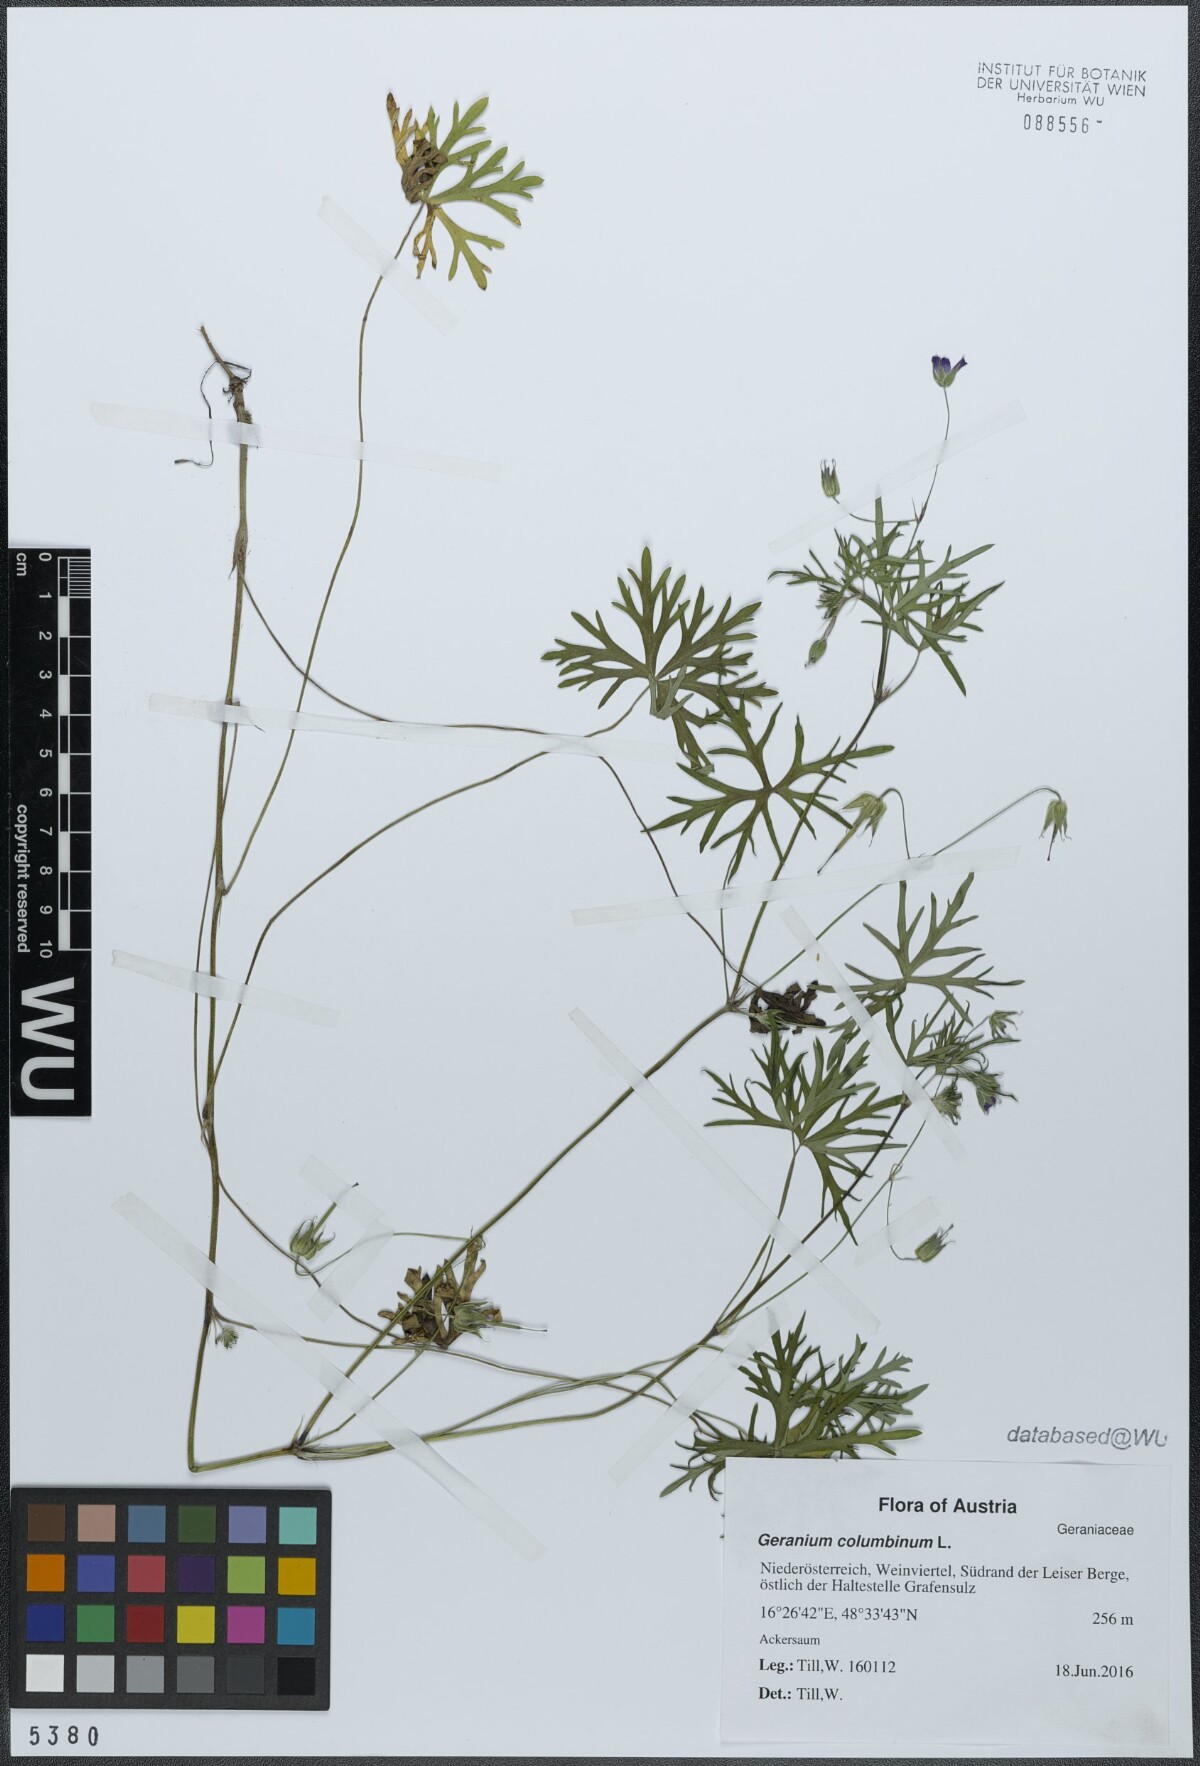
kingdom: Plantae
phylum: Tracheophyta
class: Magnoliopsida
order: Geraniales
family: Geraniaceae
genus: Geranium
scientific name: Geranium columbinum
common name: Long-stalked crane's-bill
